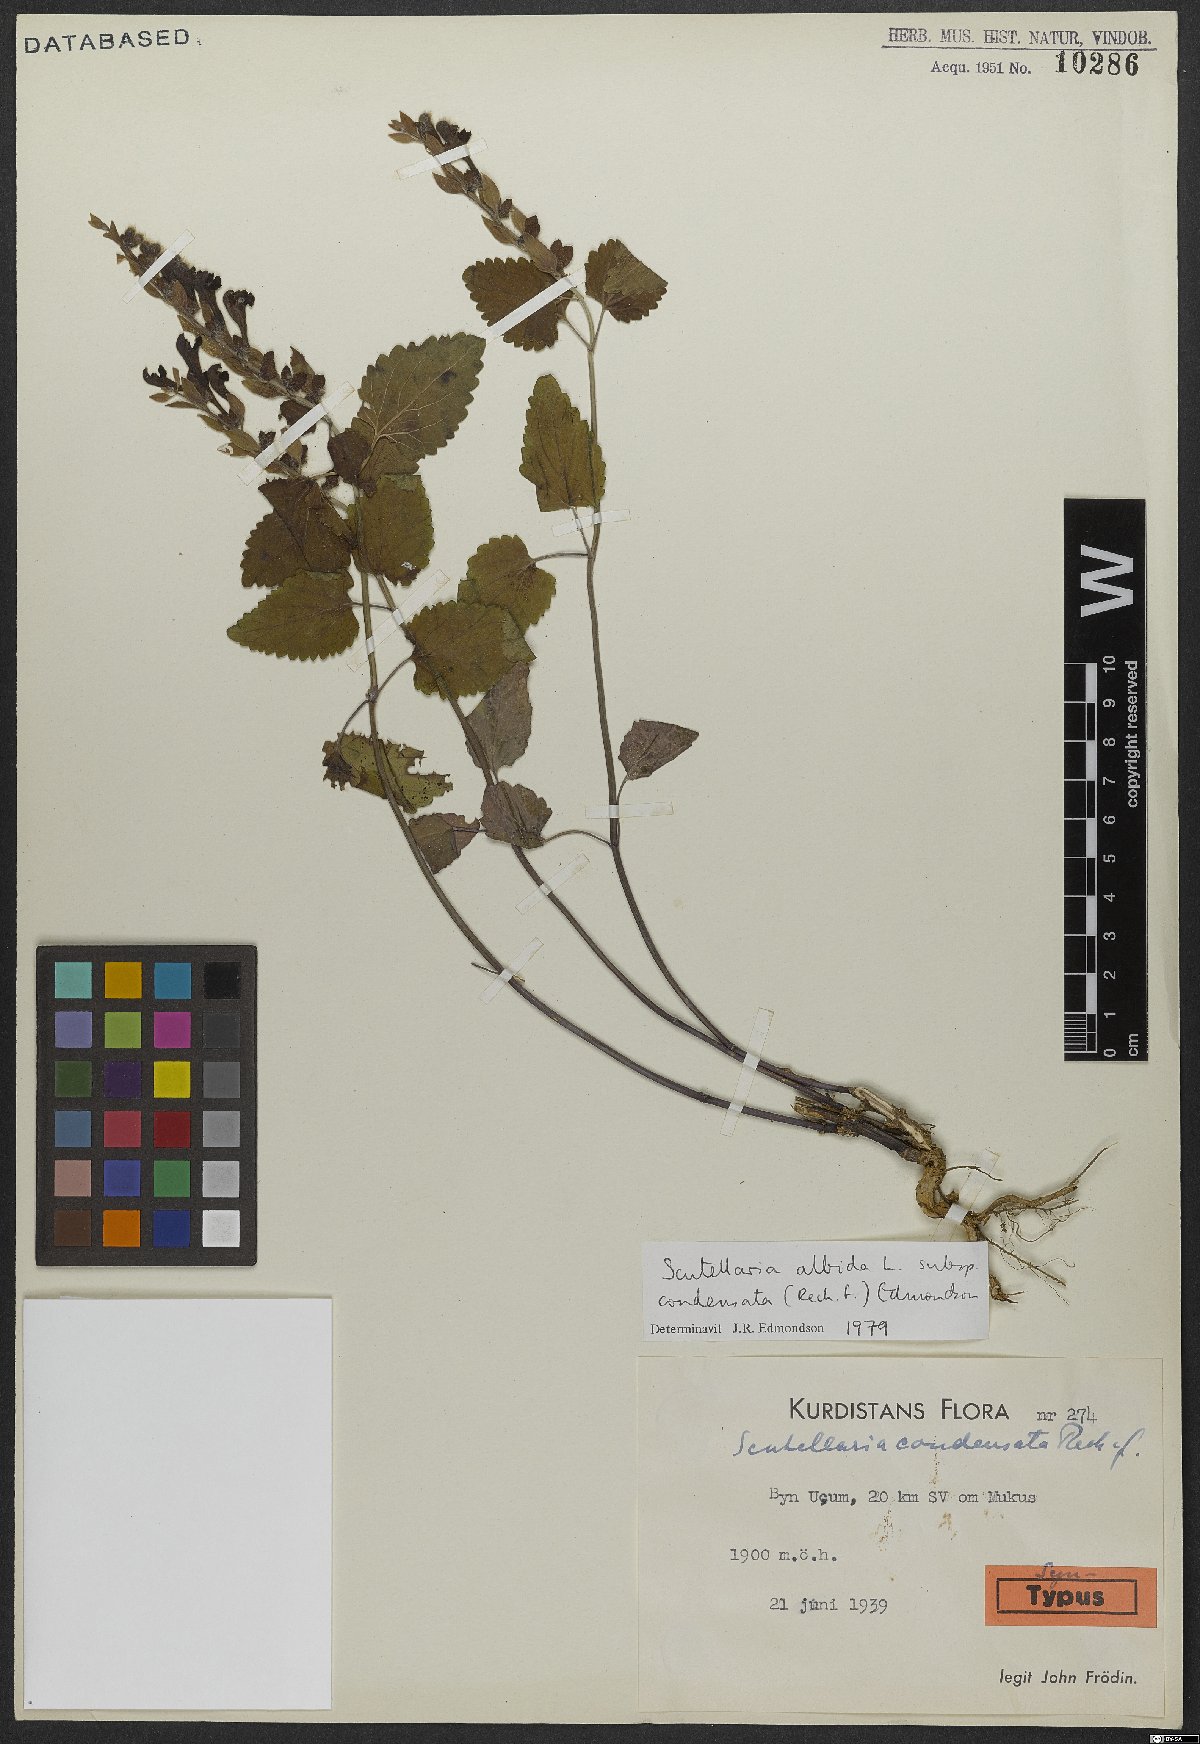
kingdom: Plantae
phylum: Tracheophyta
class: Magnoliopsida
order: Lamiales
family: Lamiaceae
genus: Scutellaria
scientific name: Scutellaria albida
